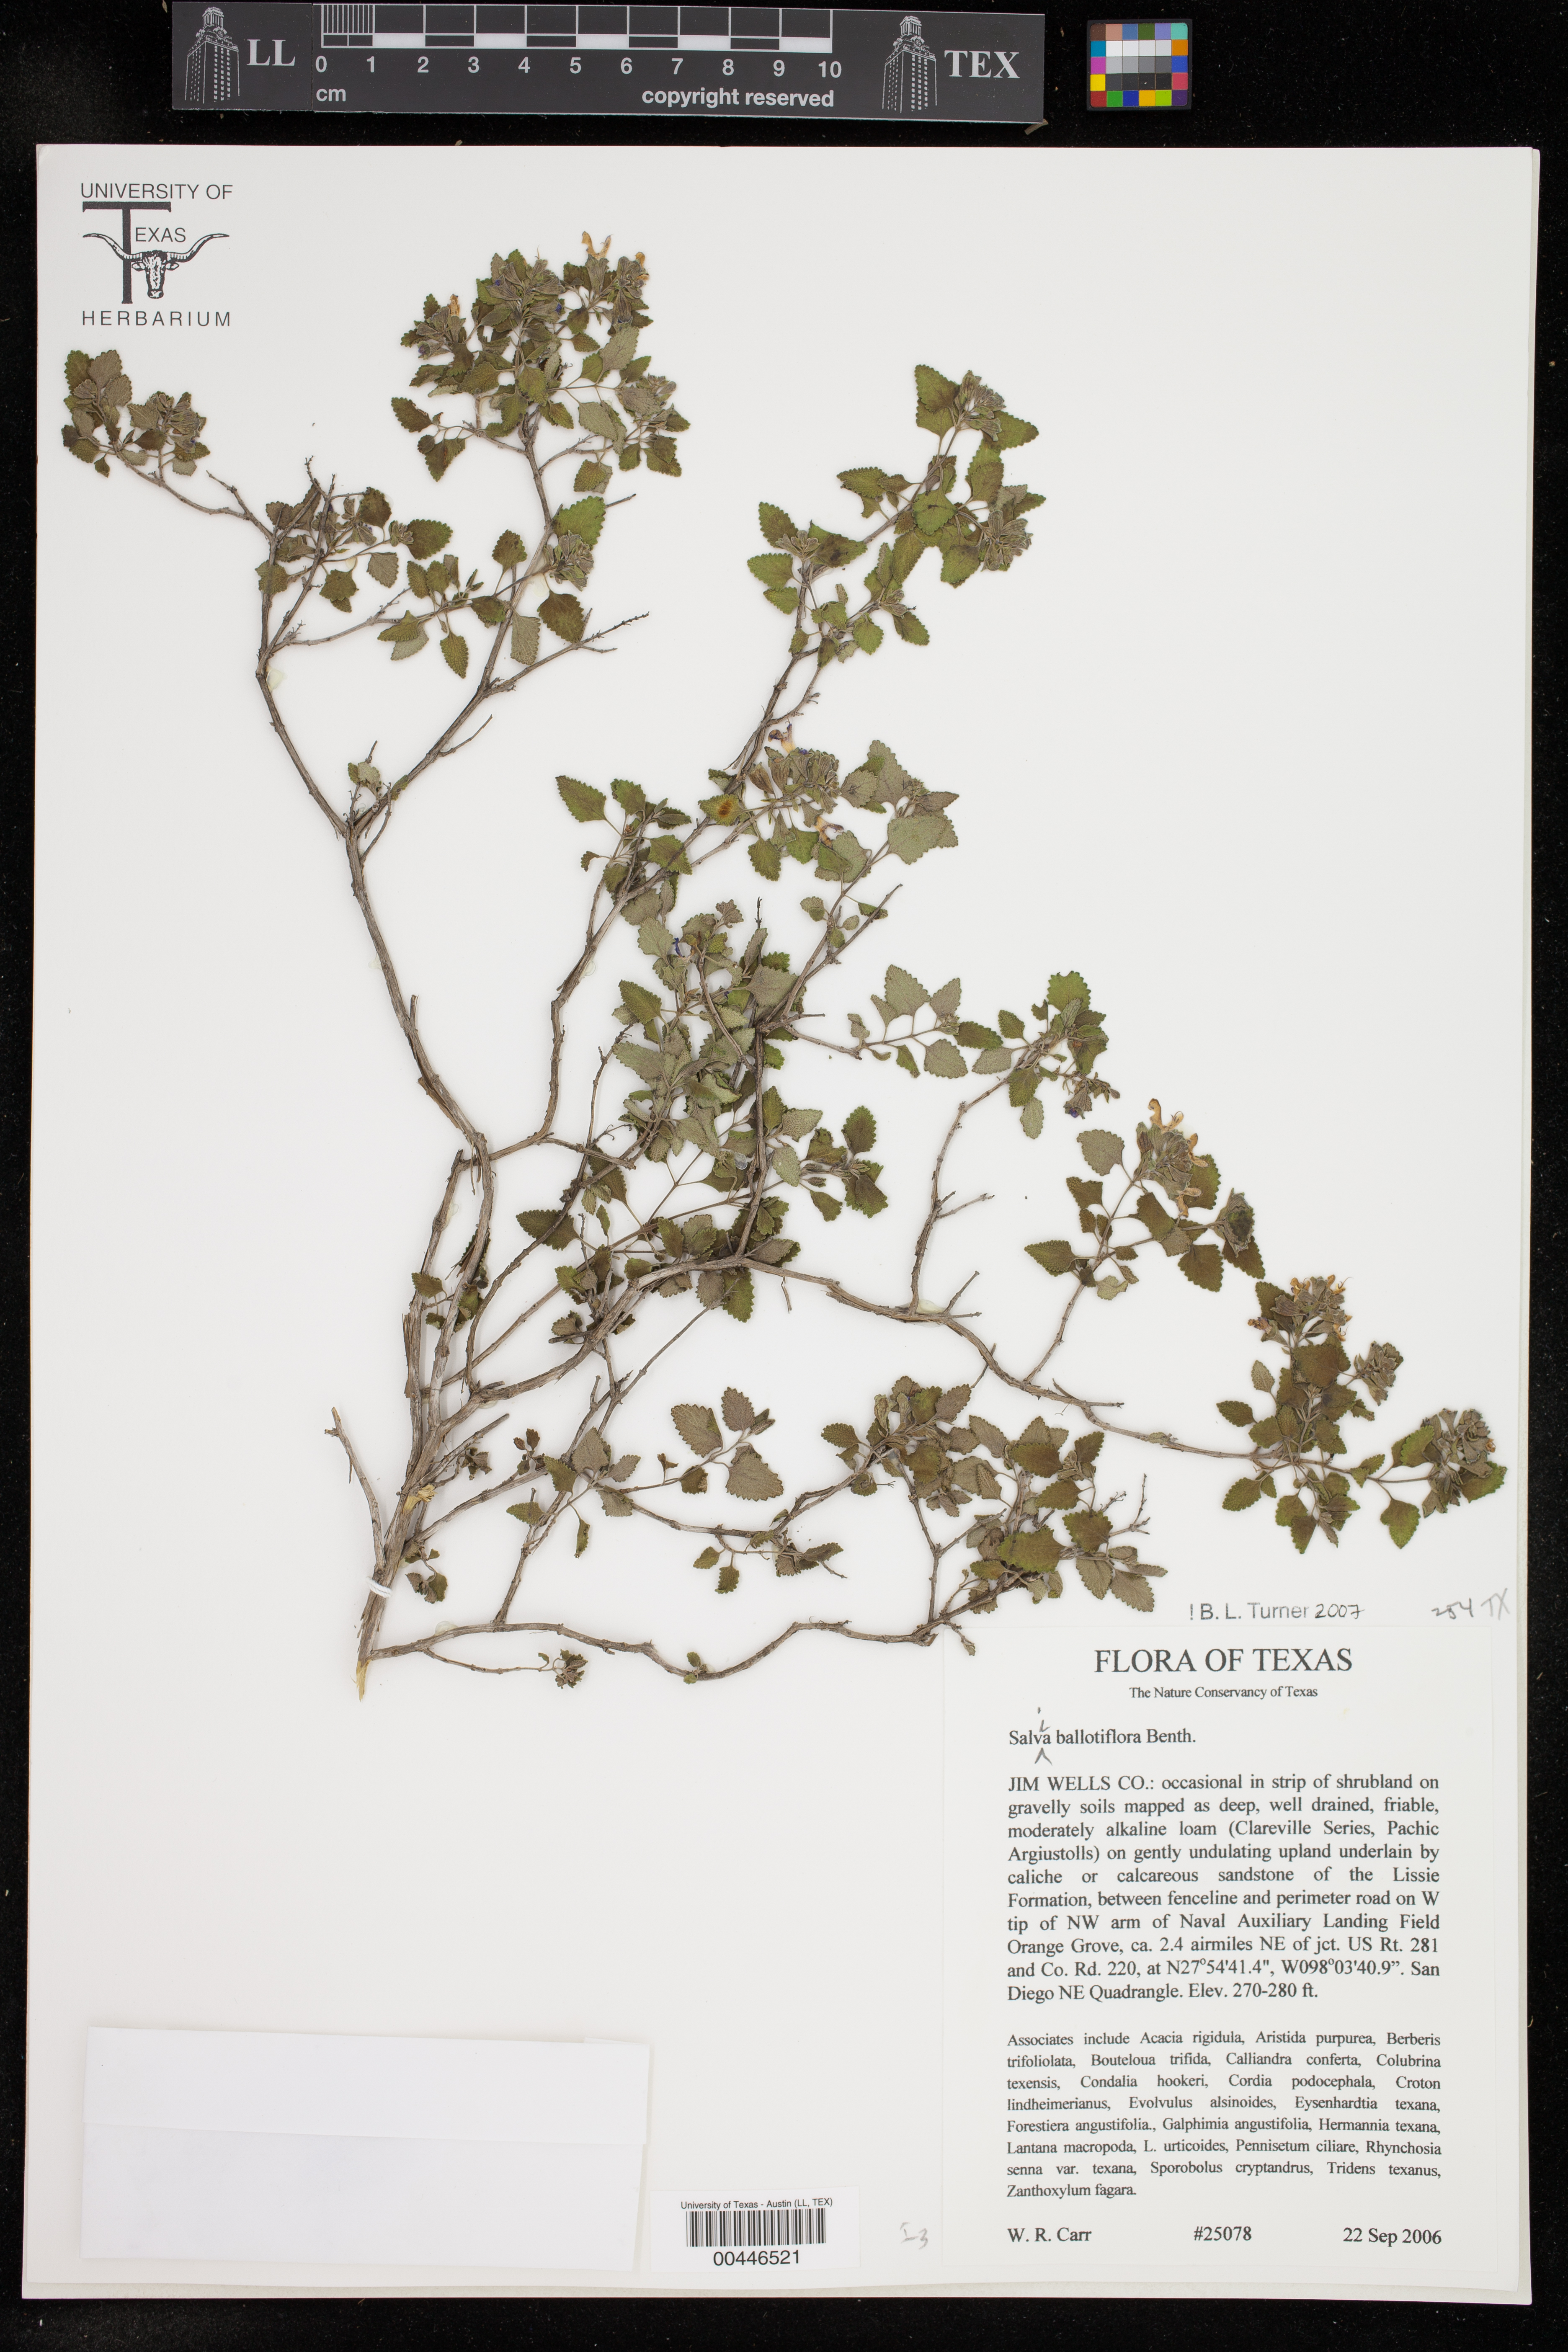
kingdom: Plantae
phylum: Tracheophyta
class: Magnoliopsida
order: Lamiales
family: Lamiaceae
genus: Salvia
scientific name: Salvia ballotiflora
